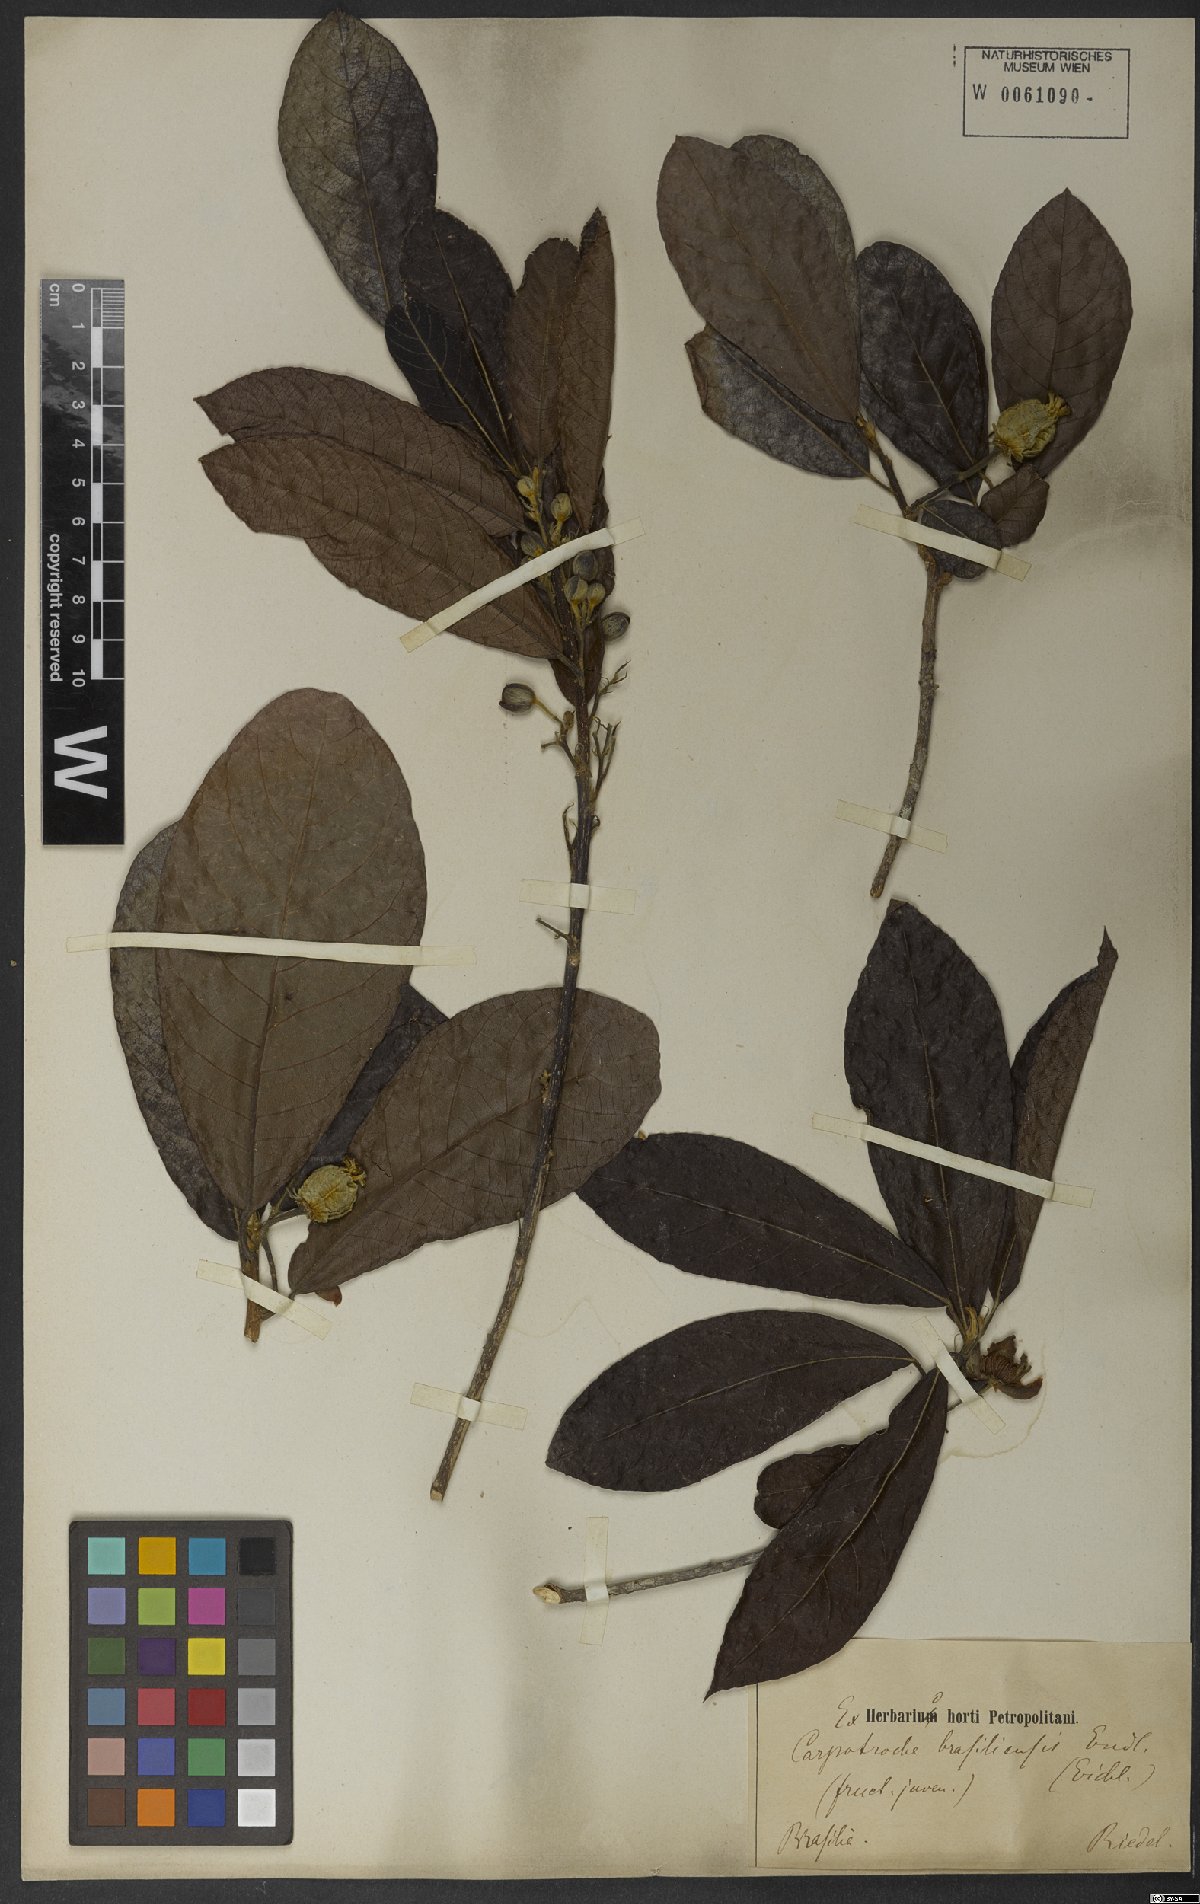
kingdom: Plantae
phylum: Tracheophyta
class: Magnoliopsida
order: Malpighiales
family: Achariaceae
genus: Carpotroche
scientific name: Carpotroche brasiliensis
